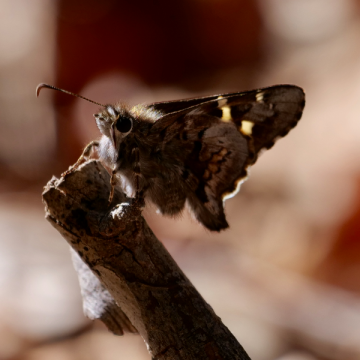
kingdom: Animalia
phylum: Arthropoda
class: Insecta
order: Lepidoptera
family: Hesperiidae
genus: Zestusa
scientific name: Zestusa dorus
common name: Short-tailed Skipper
